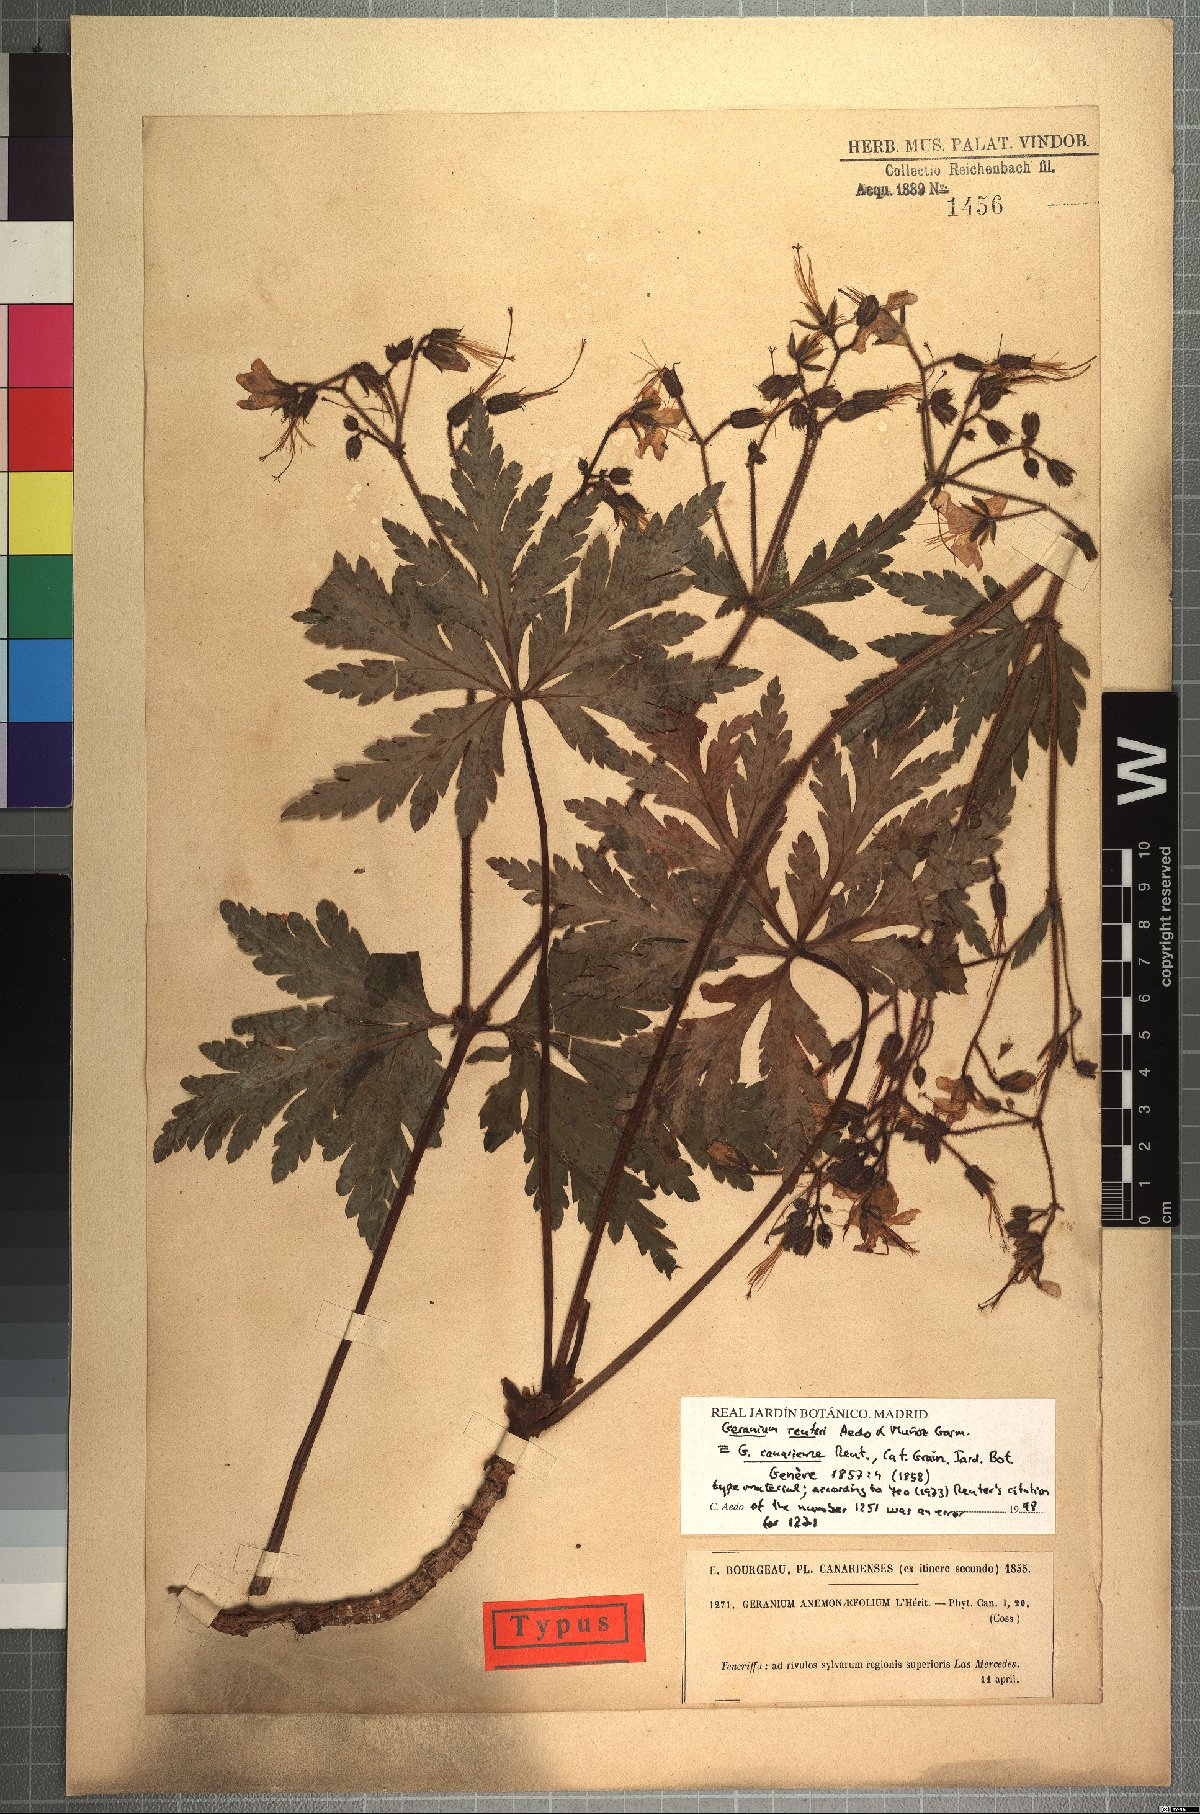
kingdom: Plantae
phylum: Tracheophyta
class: Magnoliopsida
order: Geraniales
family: Geraniaceae
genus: Geranium
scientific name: Geranium reuteri
